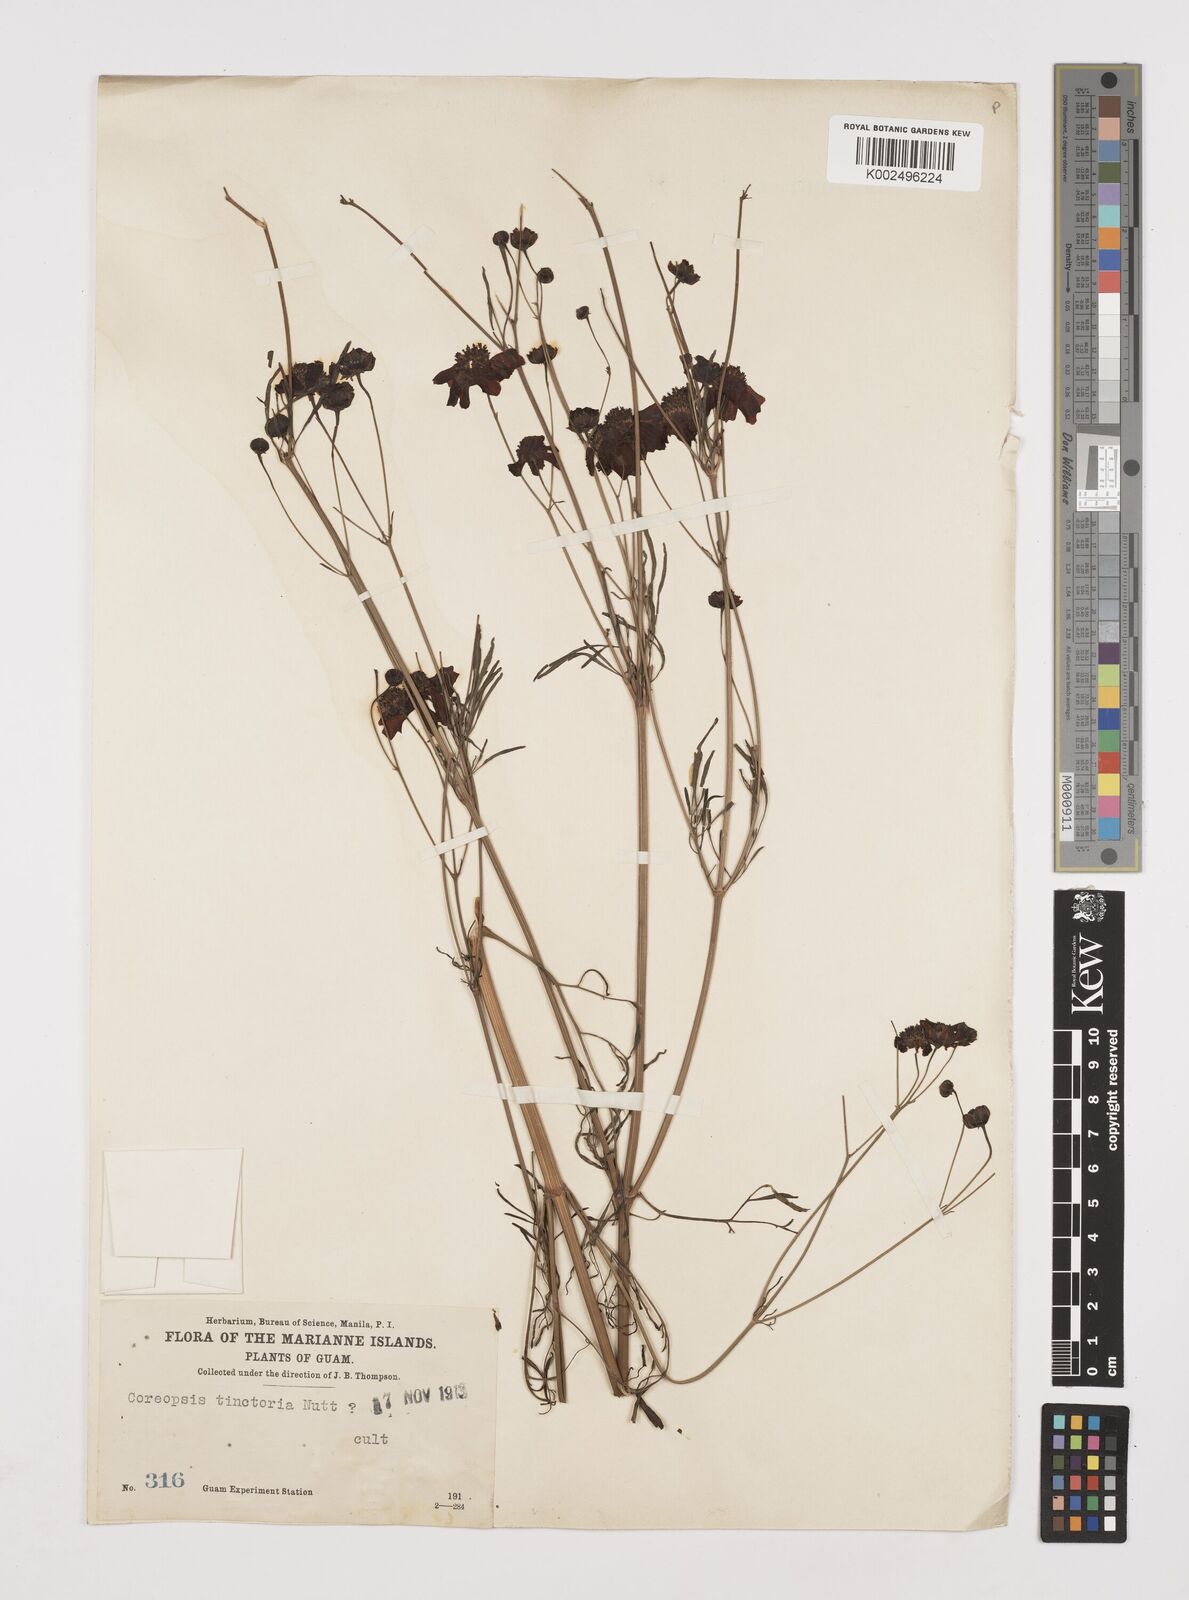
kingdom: Plantae
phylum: Tracheophyta
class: Magnoliopsida
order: Asterales
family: Asteraceae
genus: Coreopsis
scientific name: Coreopsis tinctoria
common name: Garden tickseed
